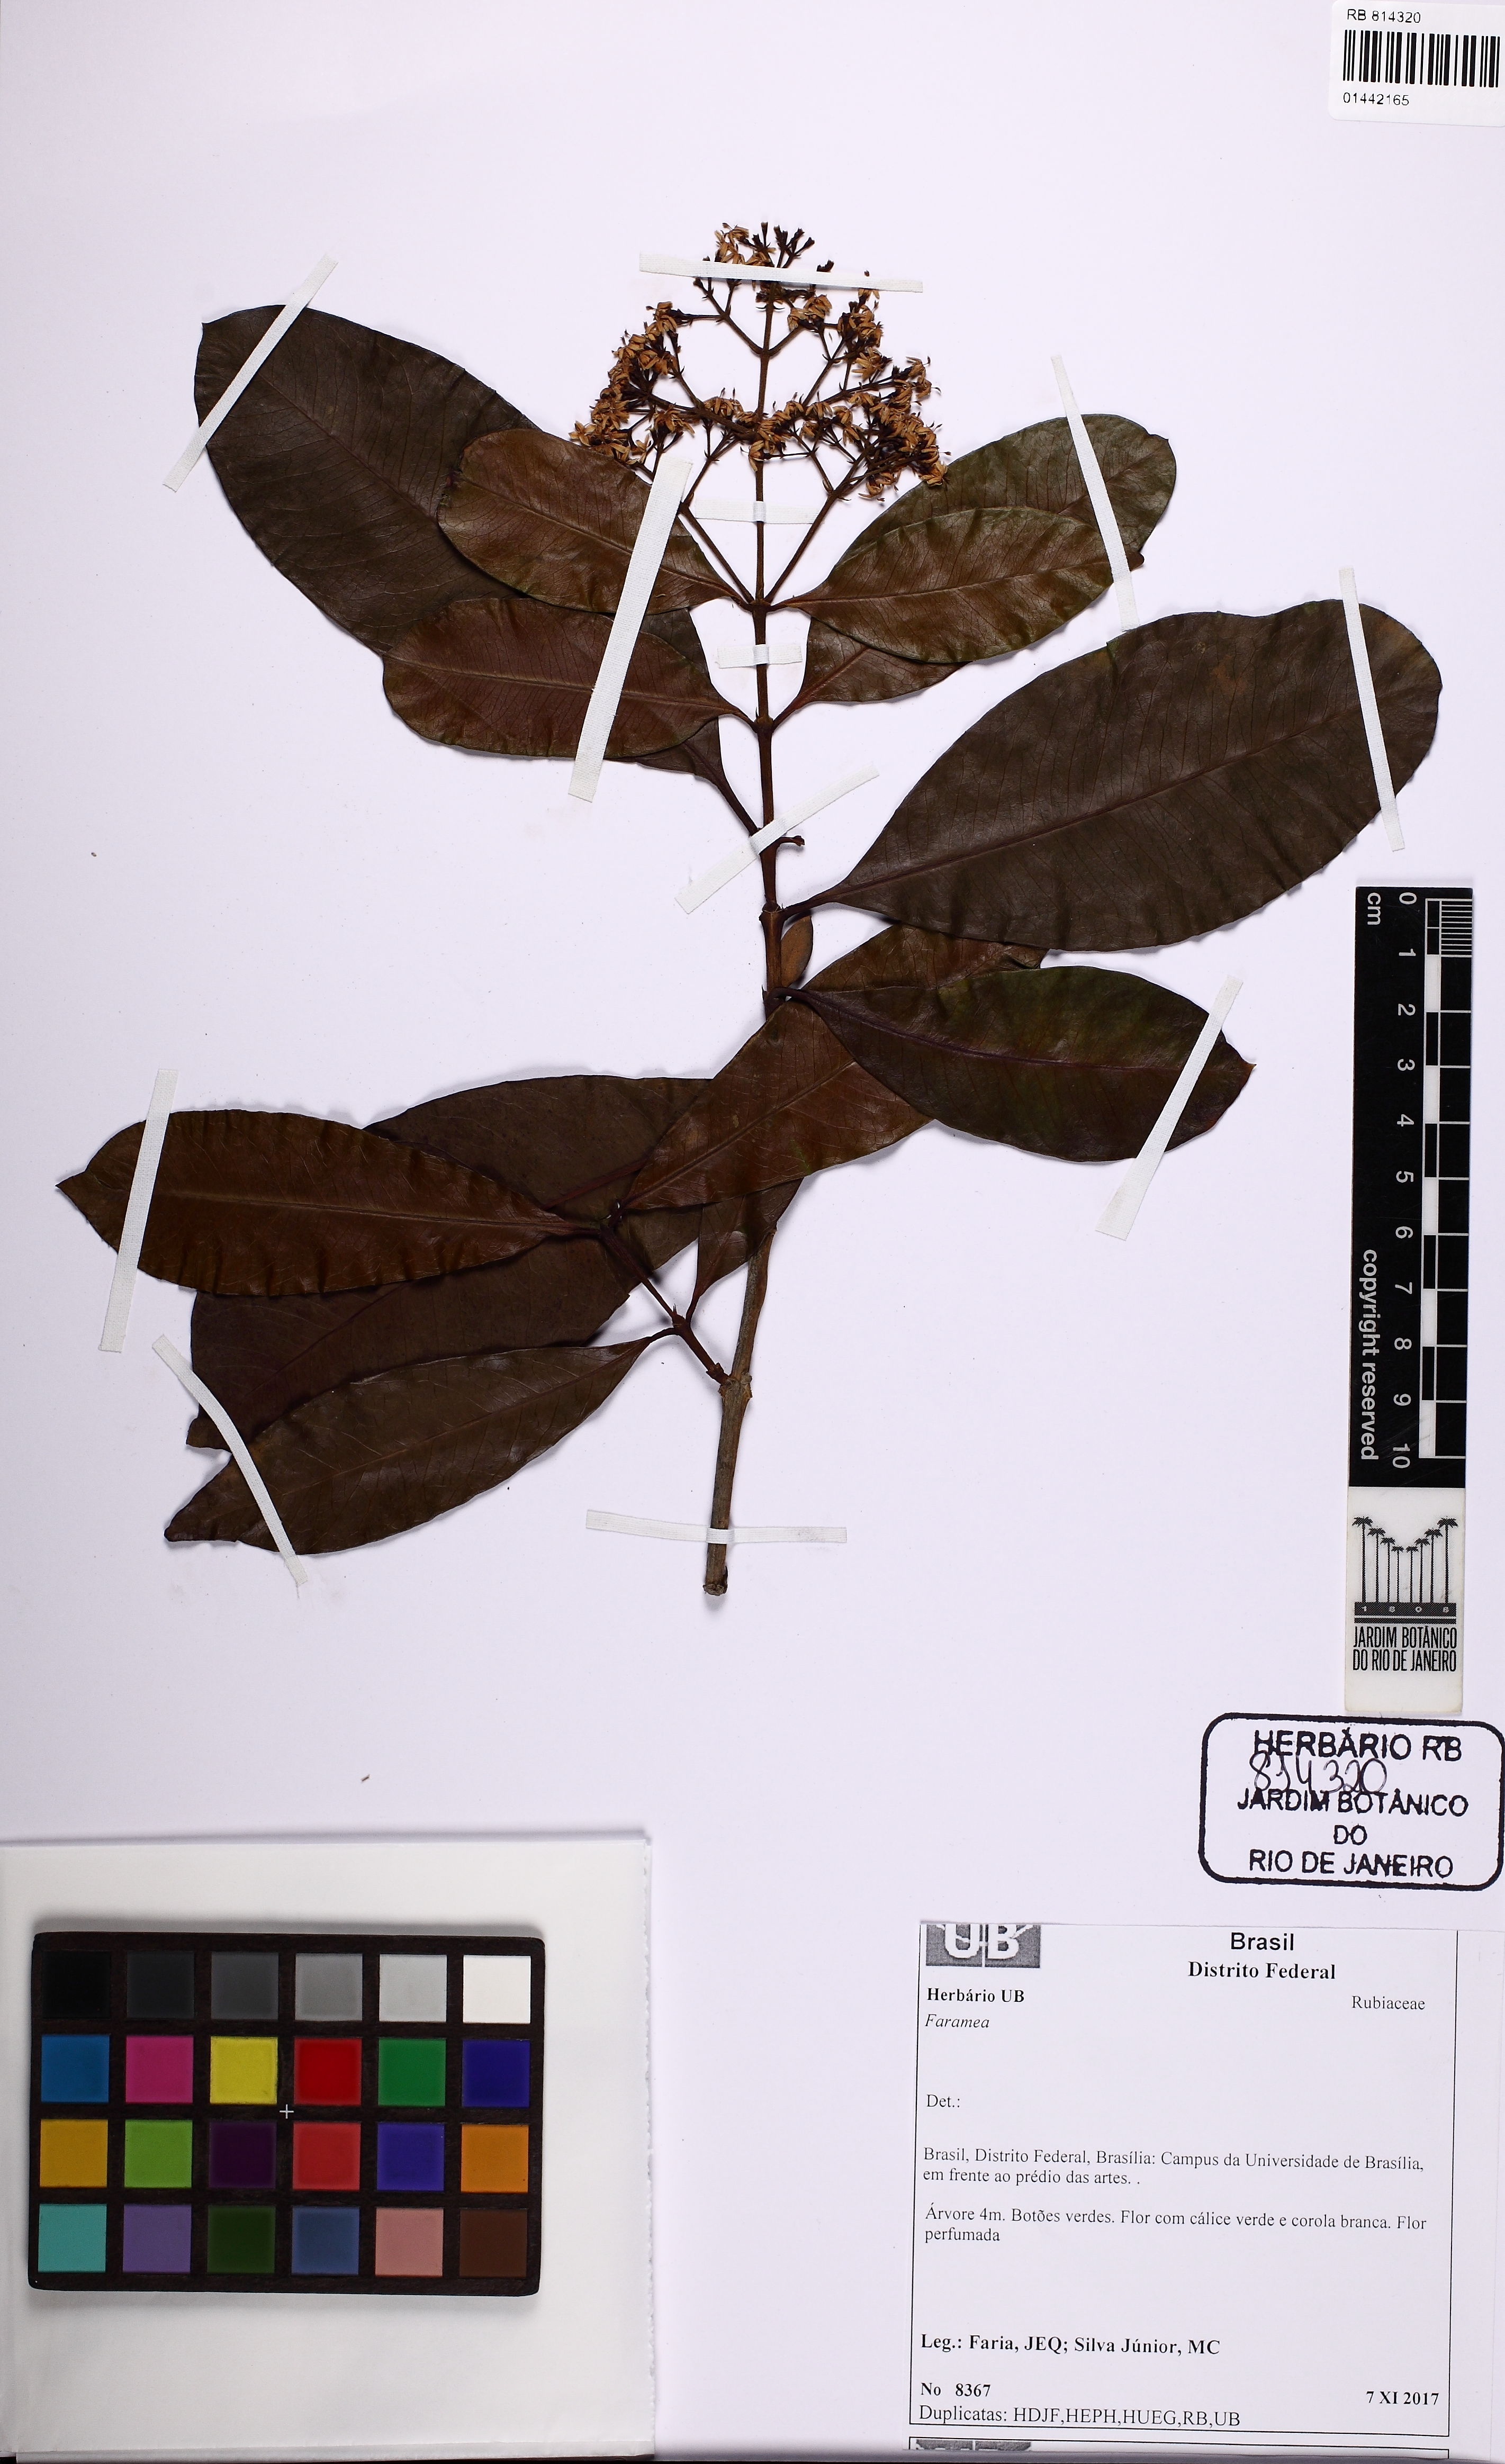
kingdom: Plantae
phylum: Tracheophyta
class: Magnoliopsida
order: Gentianales
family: Rubiaceae
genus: Ixora
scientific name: Ixora
